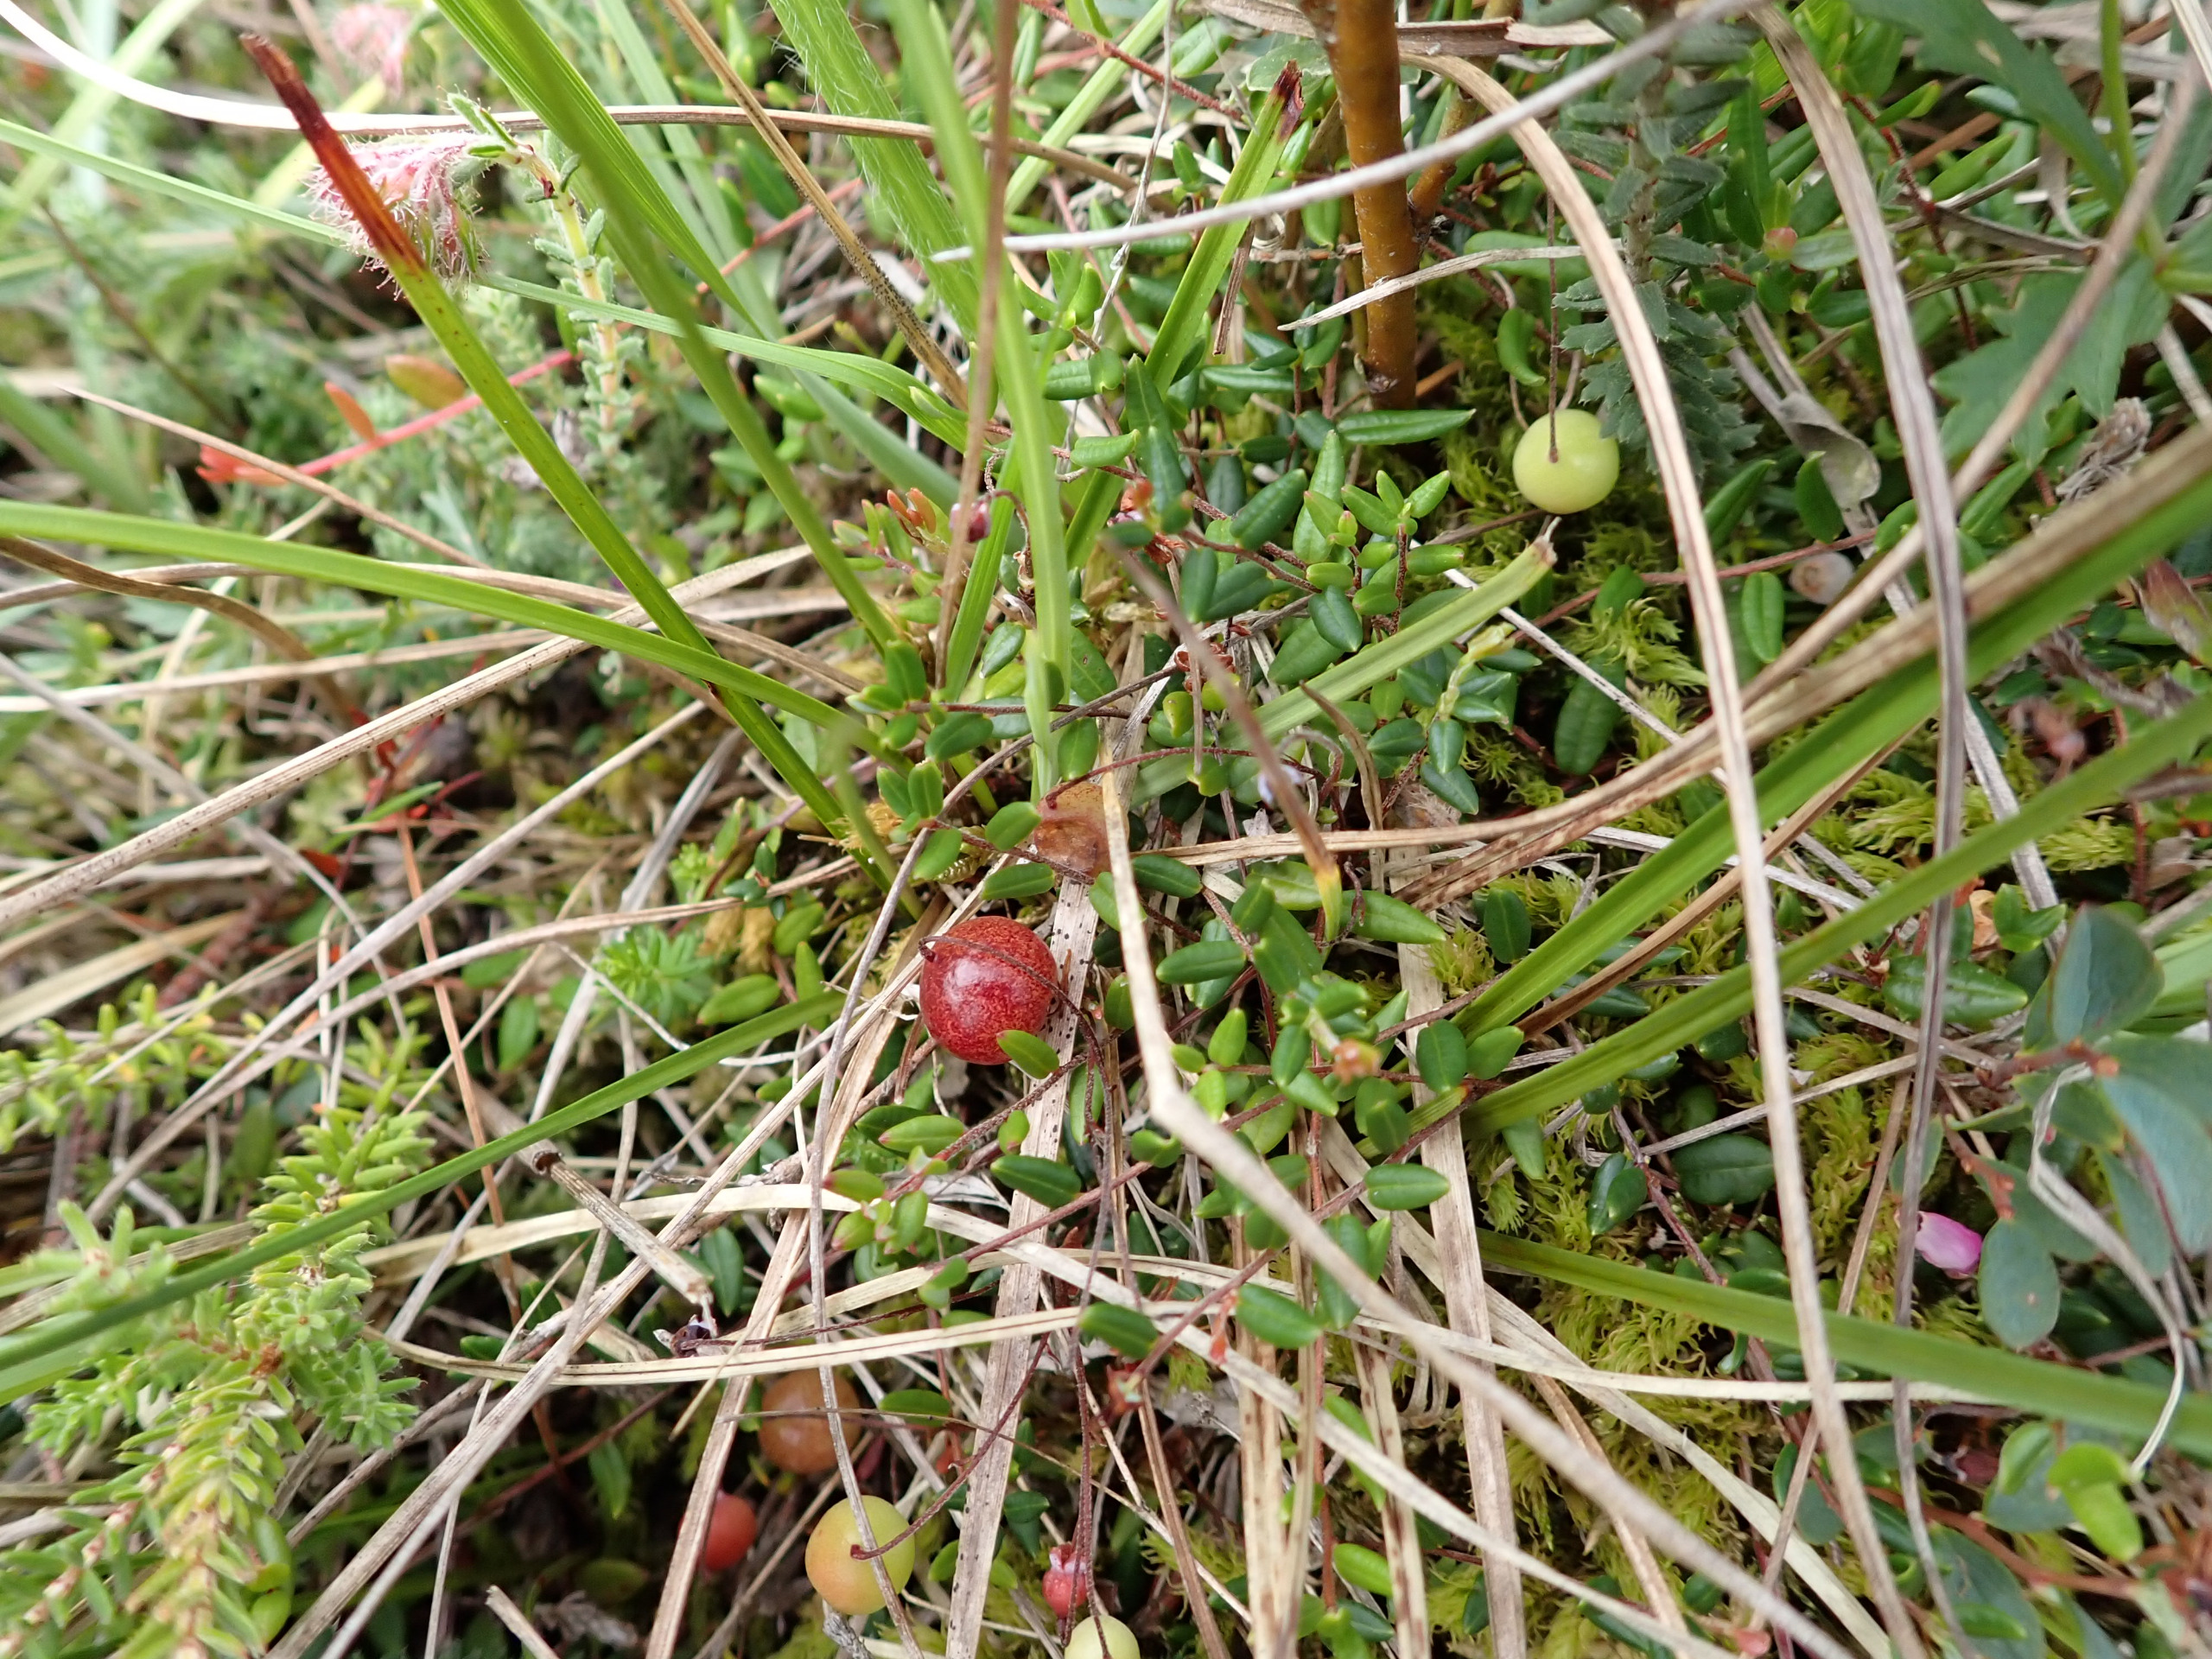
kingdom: Plantae
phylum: Tracheophyta
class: Magnoliopsida
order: Ericales
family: Ericaceae
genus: Vaccinium
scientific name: Vaccinium oxycoccos
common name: Tranebær
